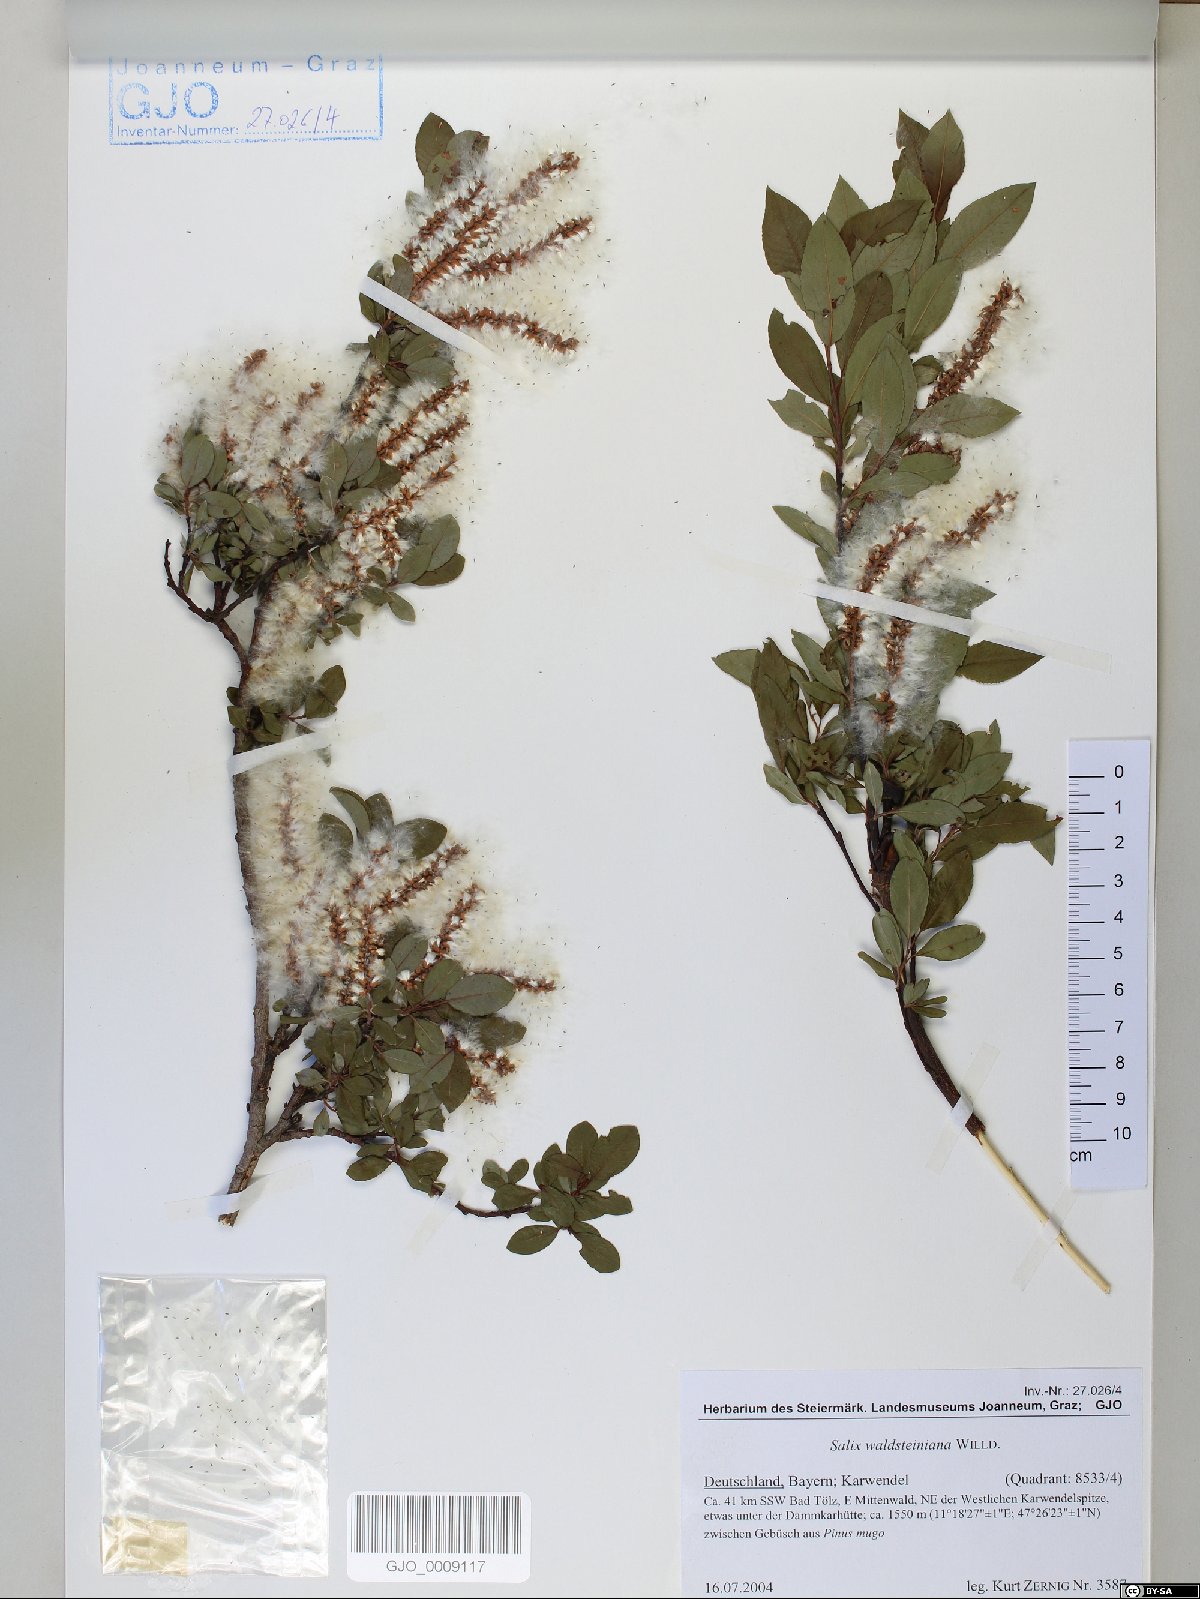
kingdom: Plantae
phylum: Tracheophyta
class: Magnoliopsida
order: Malpighiales
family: Salicaceae
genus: Salix
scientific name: Salix waldsteiniana
